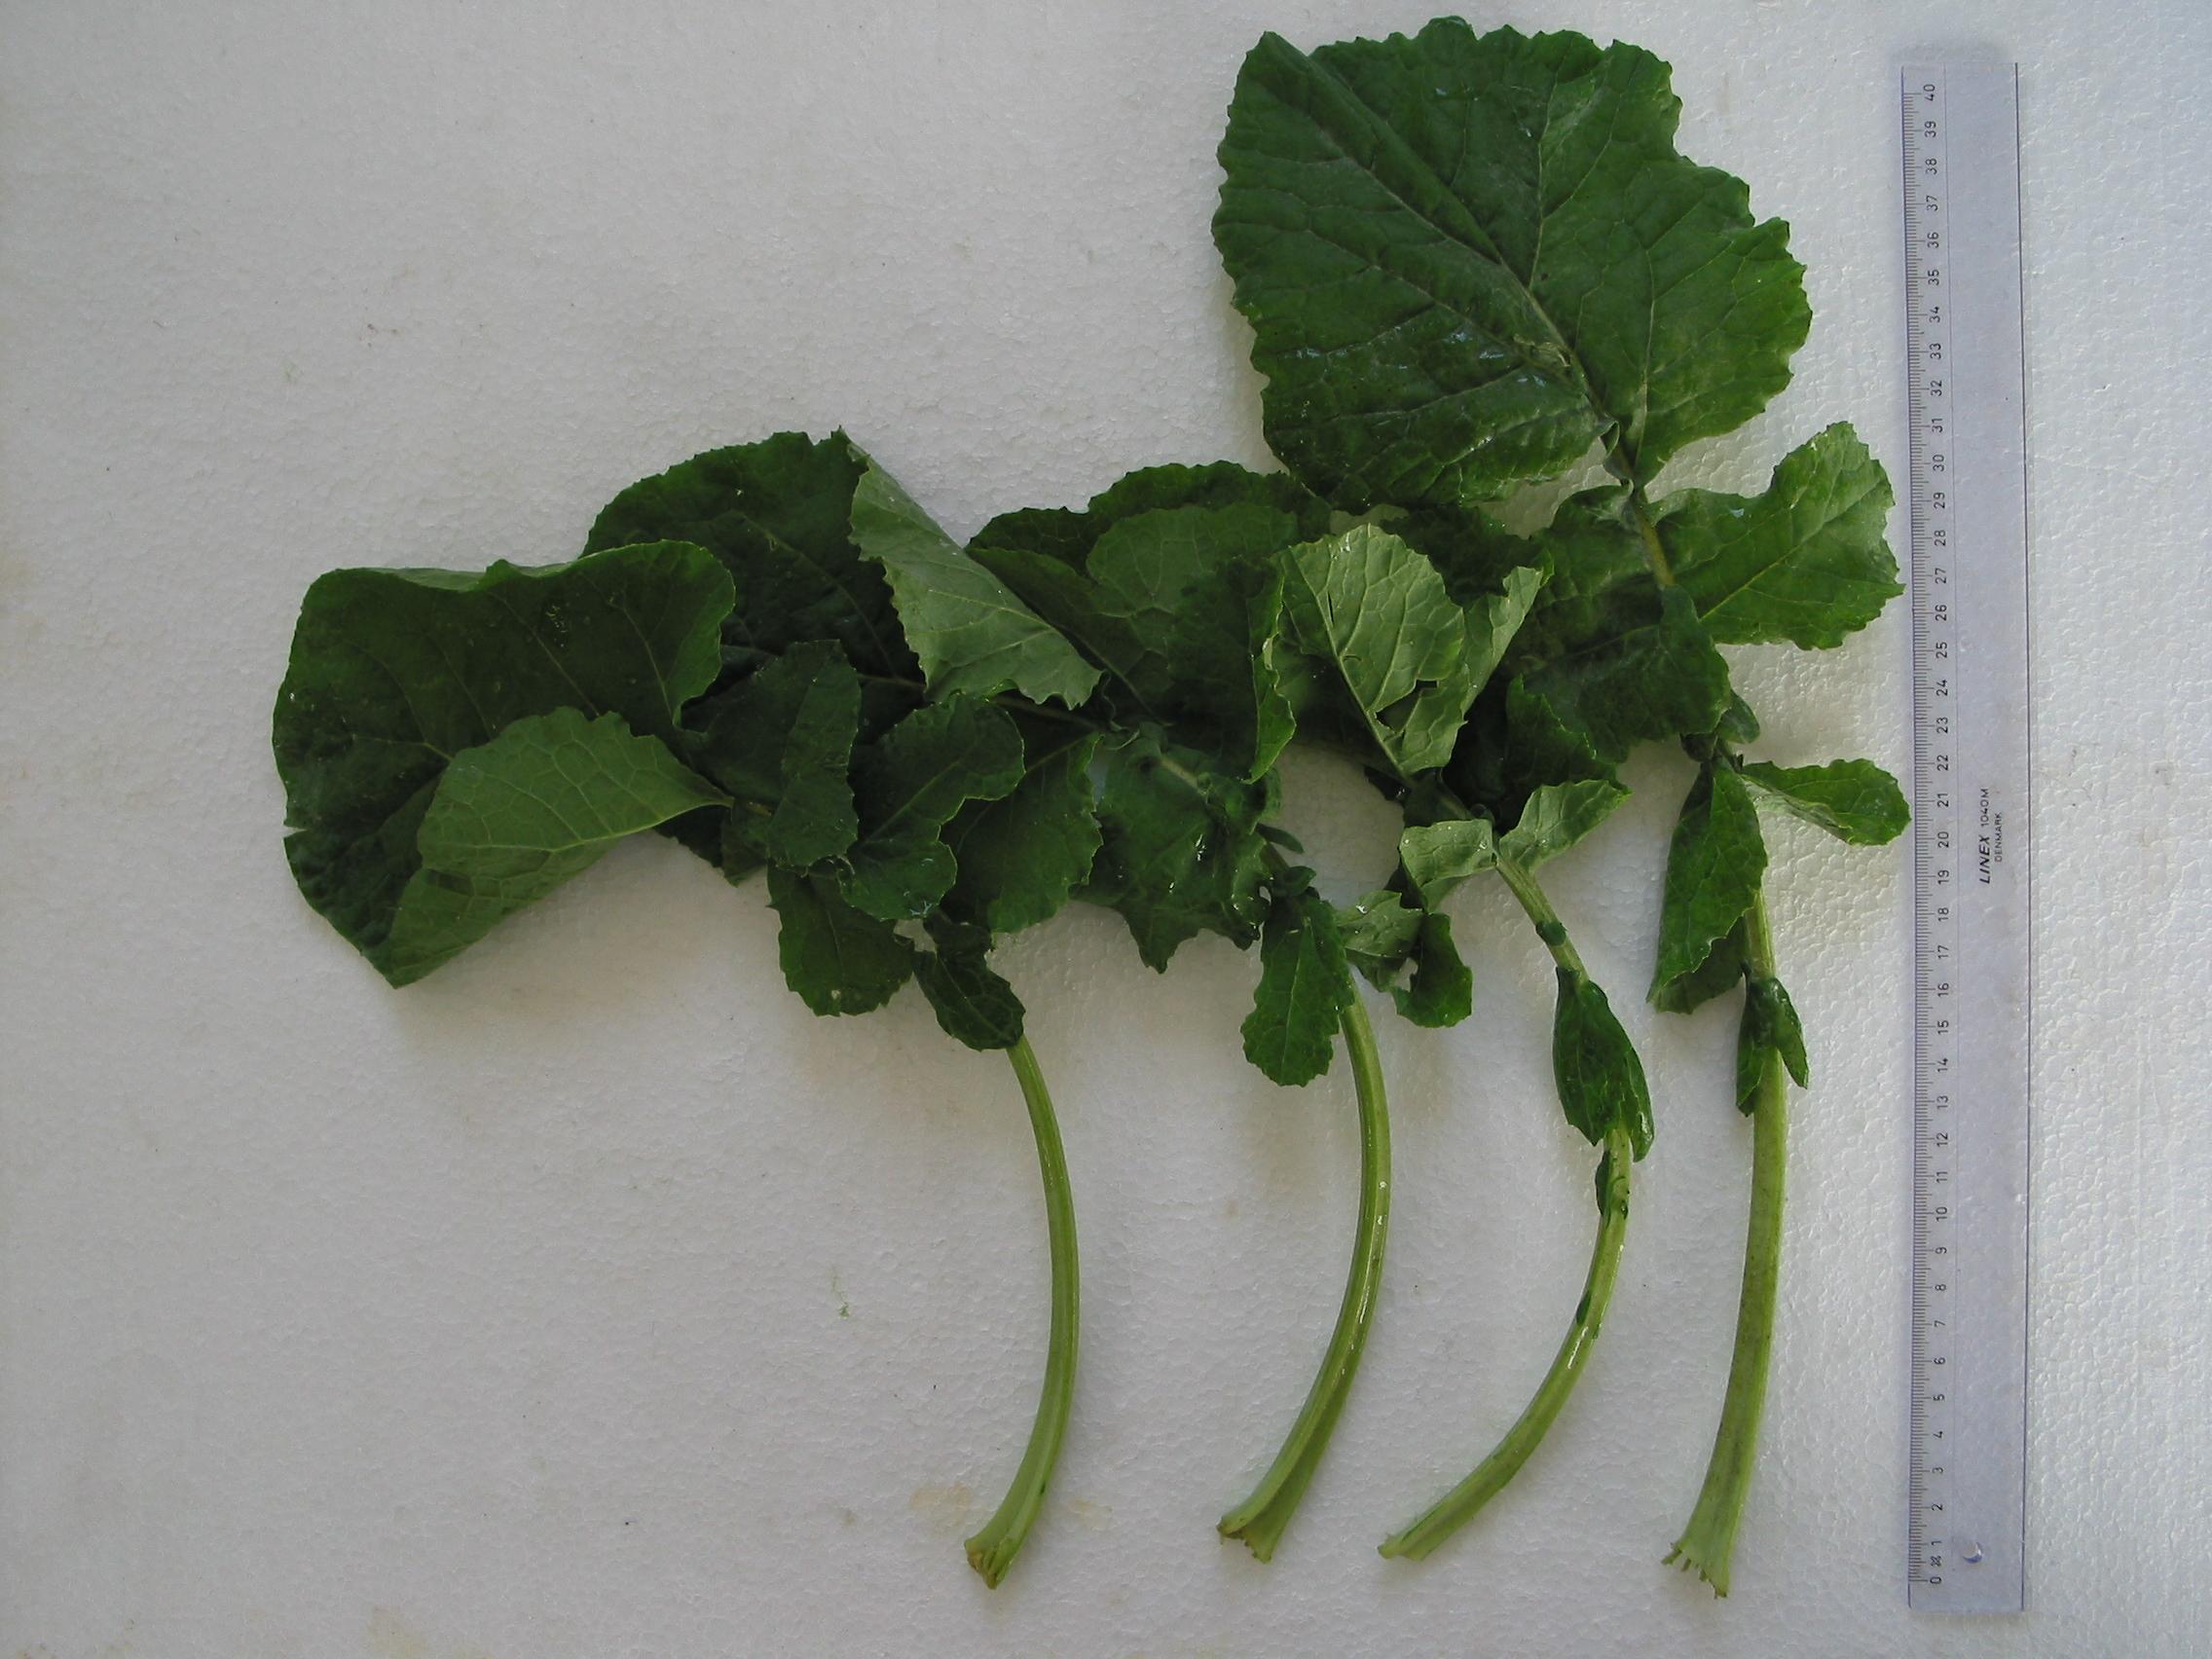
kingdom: Plantae
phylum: Tracheophyta
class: Magnoliopsida
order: Brassicales
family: Brassicaceae
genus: Brassica
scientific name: Brassica napus
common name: Rape
